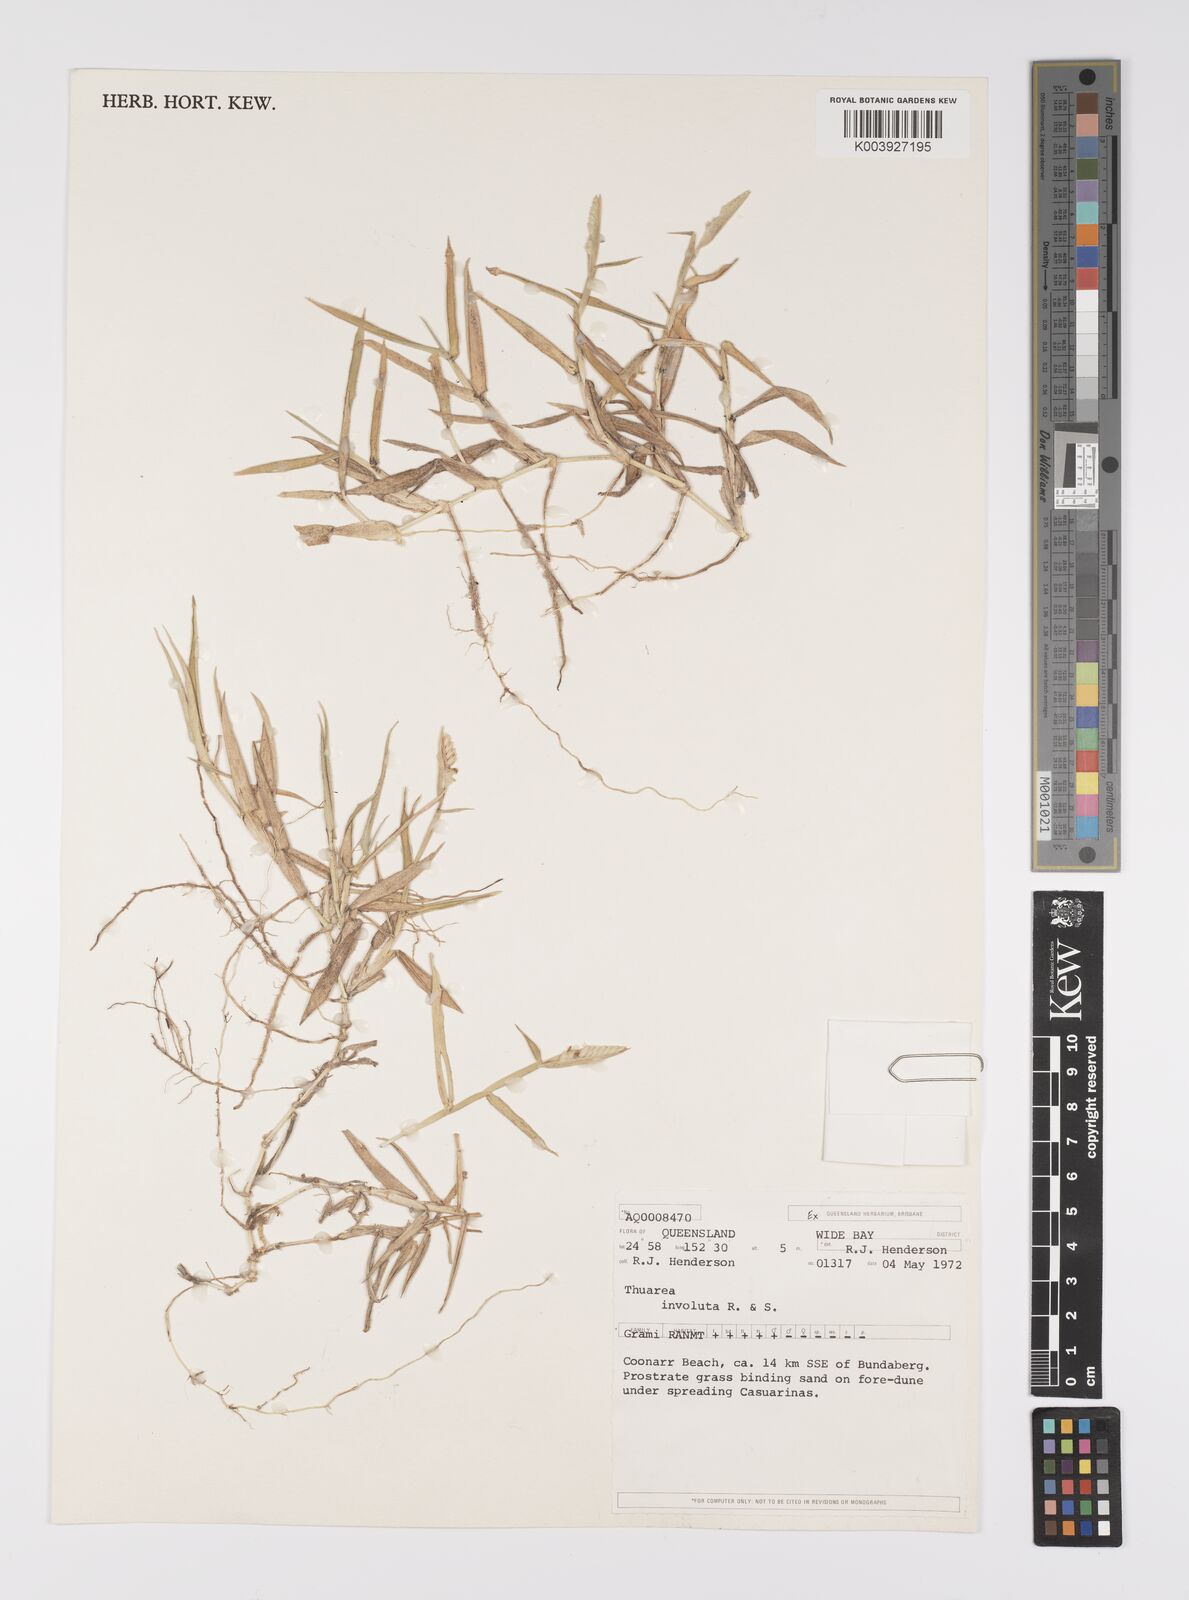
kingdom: Plantae
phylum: Tracheophyta
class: Liliopsida
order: Poales
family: Poaceae
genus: Thuarea
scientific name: Thuarea involuta
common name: Tropical beach grass
